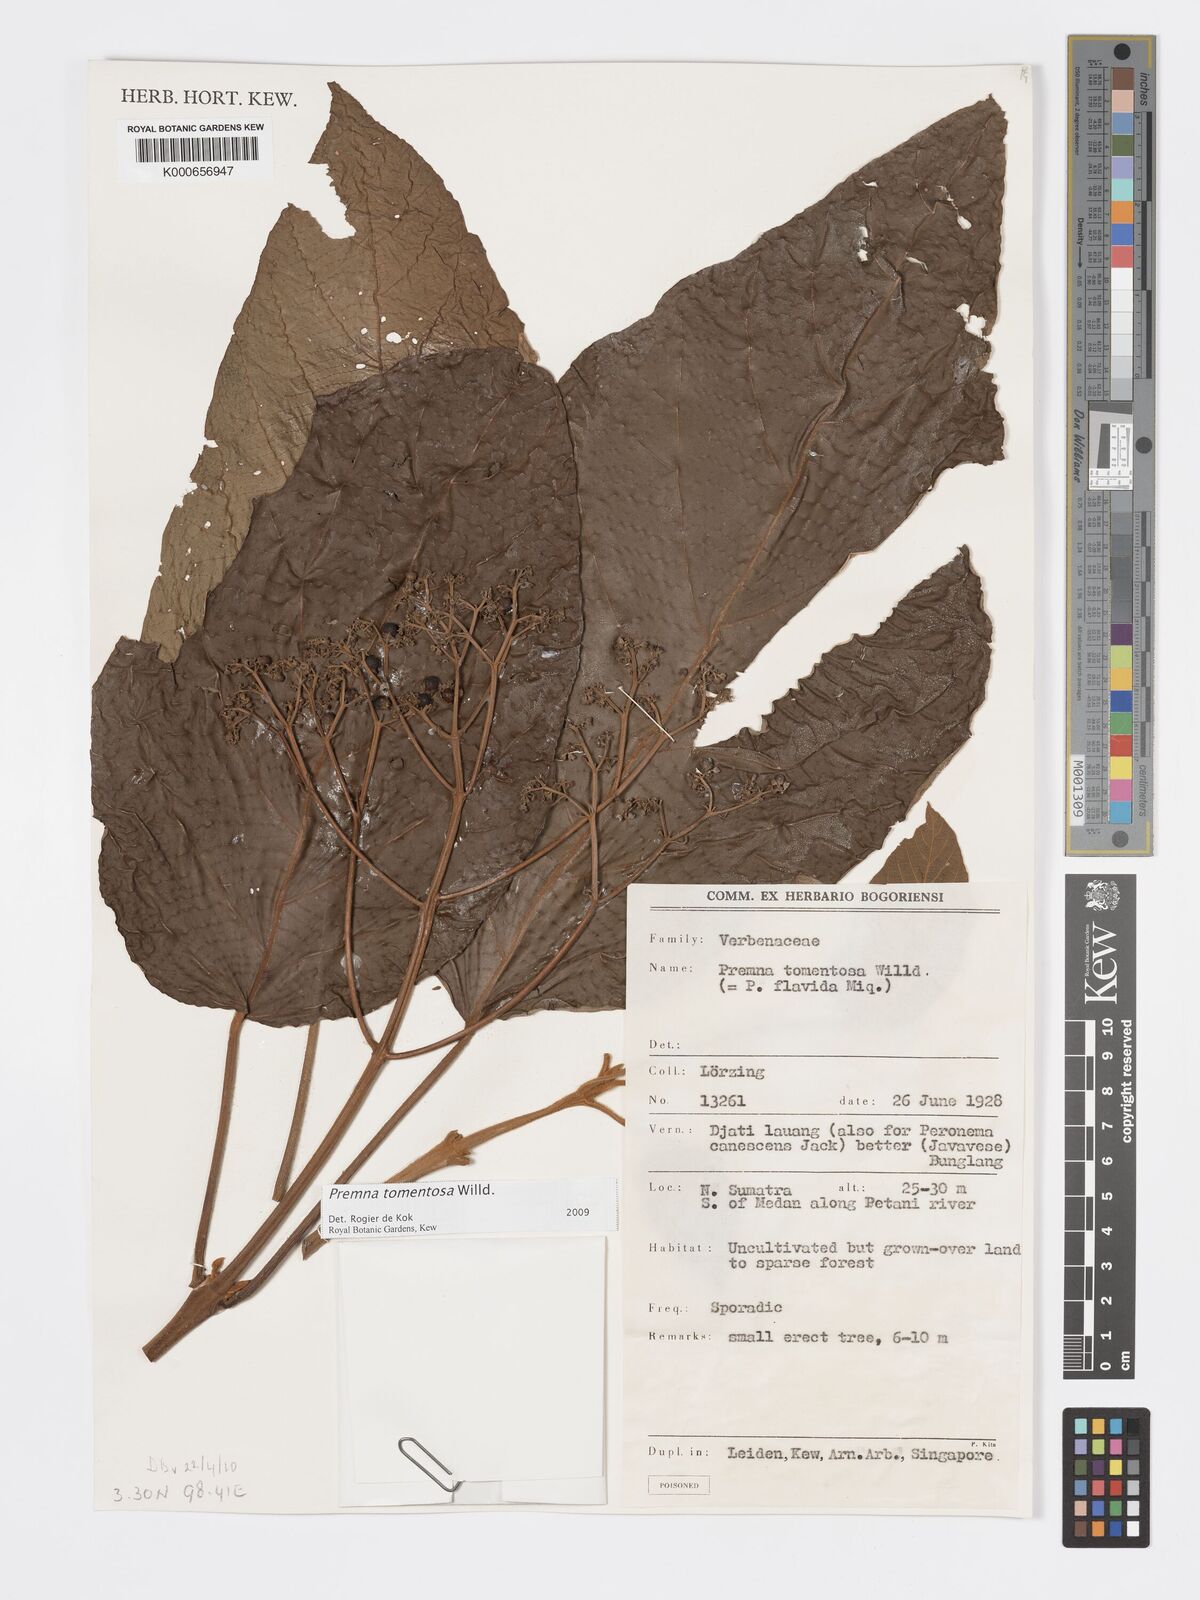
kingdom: Plantae
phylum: Tracheophyta
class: Magnoliopsida
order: Lamiales
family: Lamiaceae
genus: Premna
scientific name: Premna tomentosa
